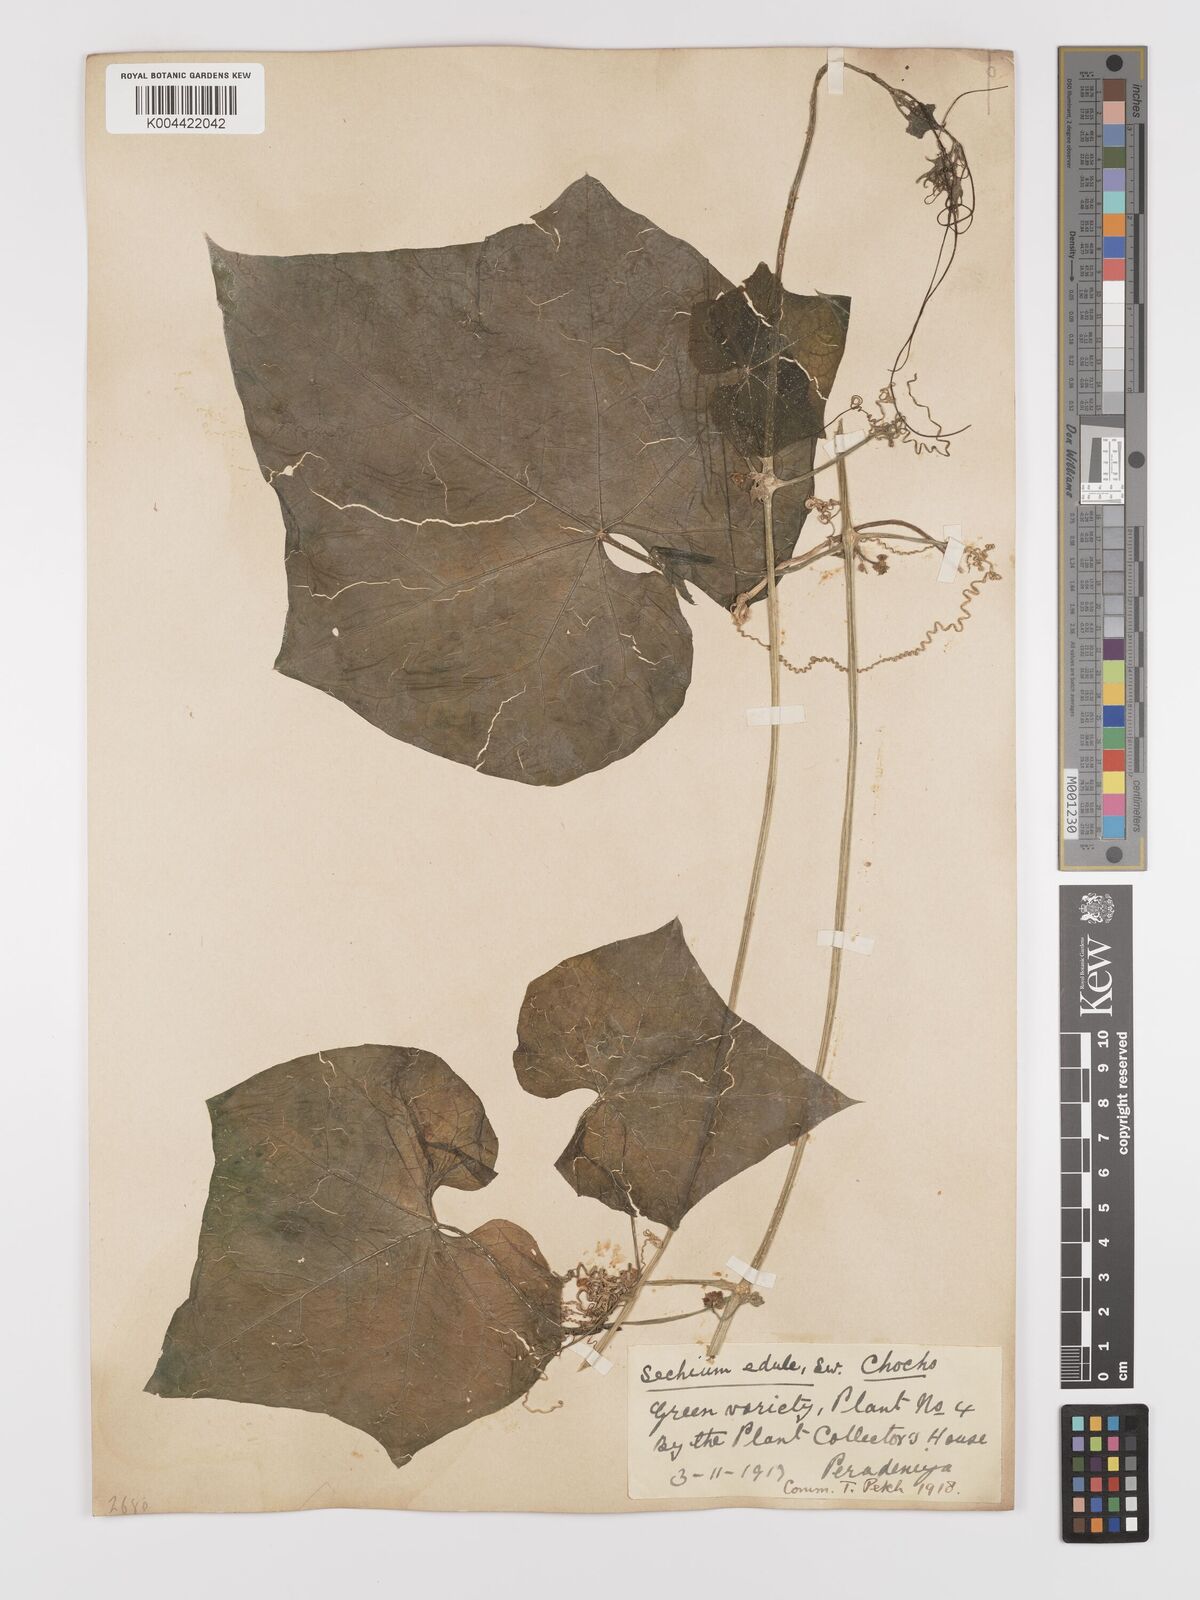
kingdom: Plantae
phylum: Tracheophyta
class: Magnoliopsida
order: Cucurbitales
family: Cucurbitaceae
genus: Sechium
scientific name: Sechium edule
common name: Chayote
